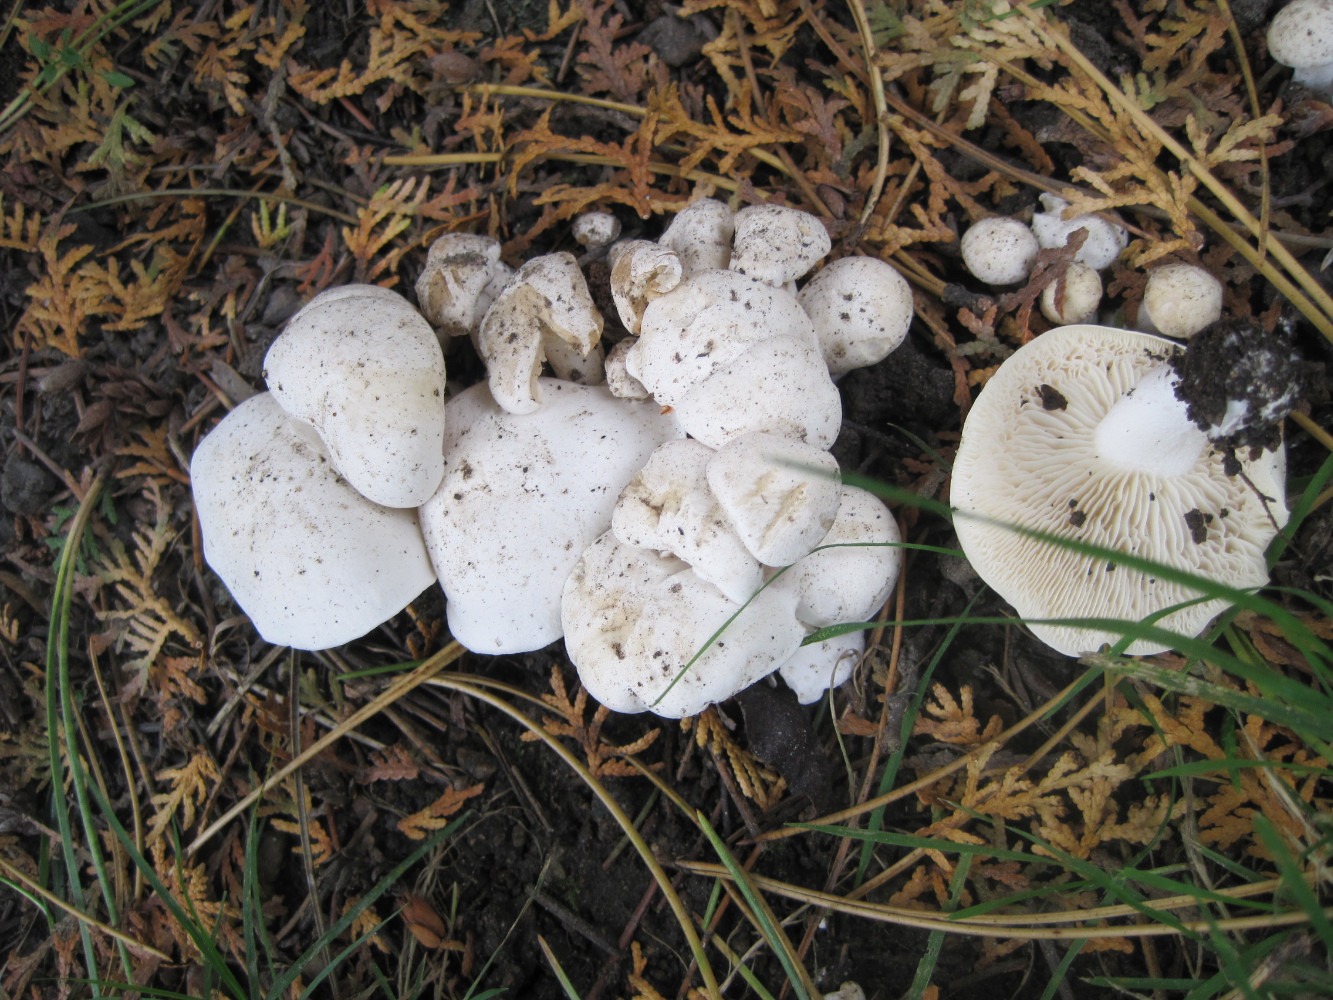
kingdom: Fungi
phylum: Basidiomycota
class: Agaricomycetes
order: Agaricales
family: Tricholomataceae
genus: Leucocybe
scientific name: Leucocybe connata
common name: knippe-tragthat
